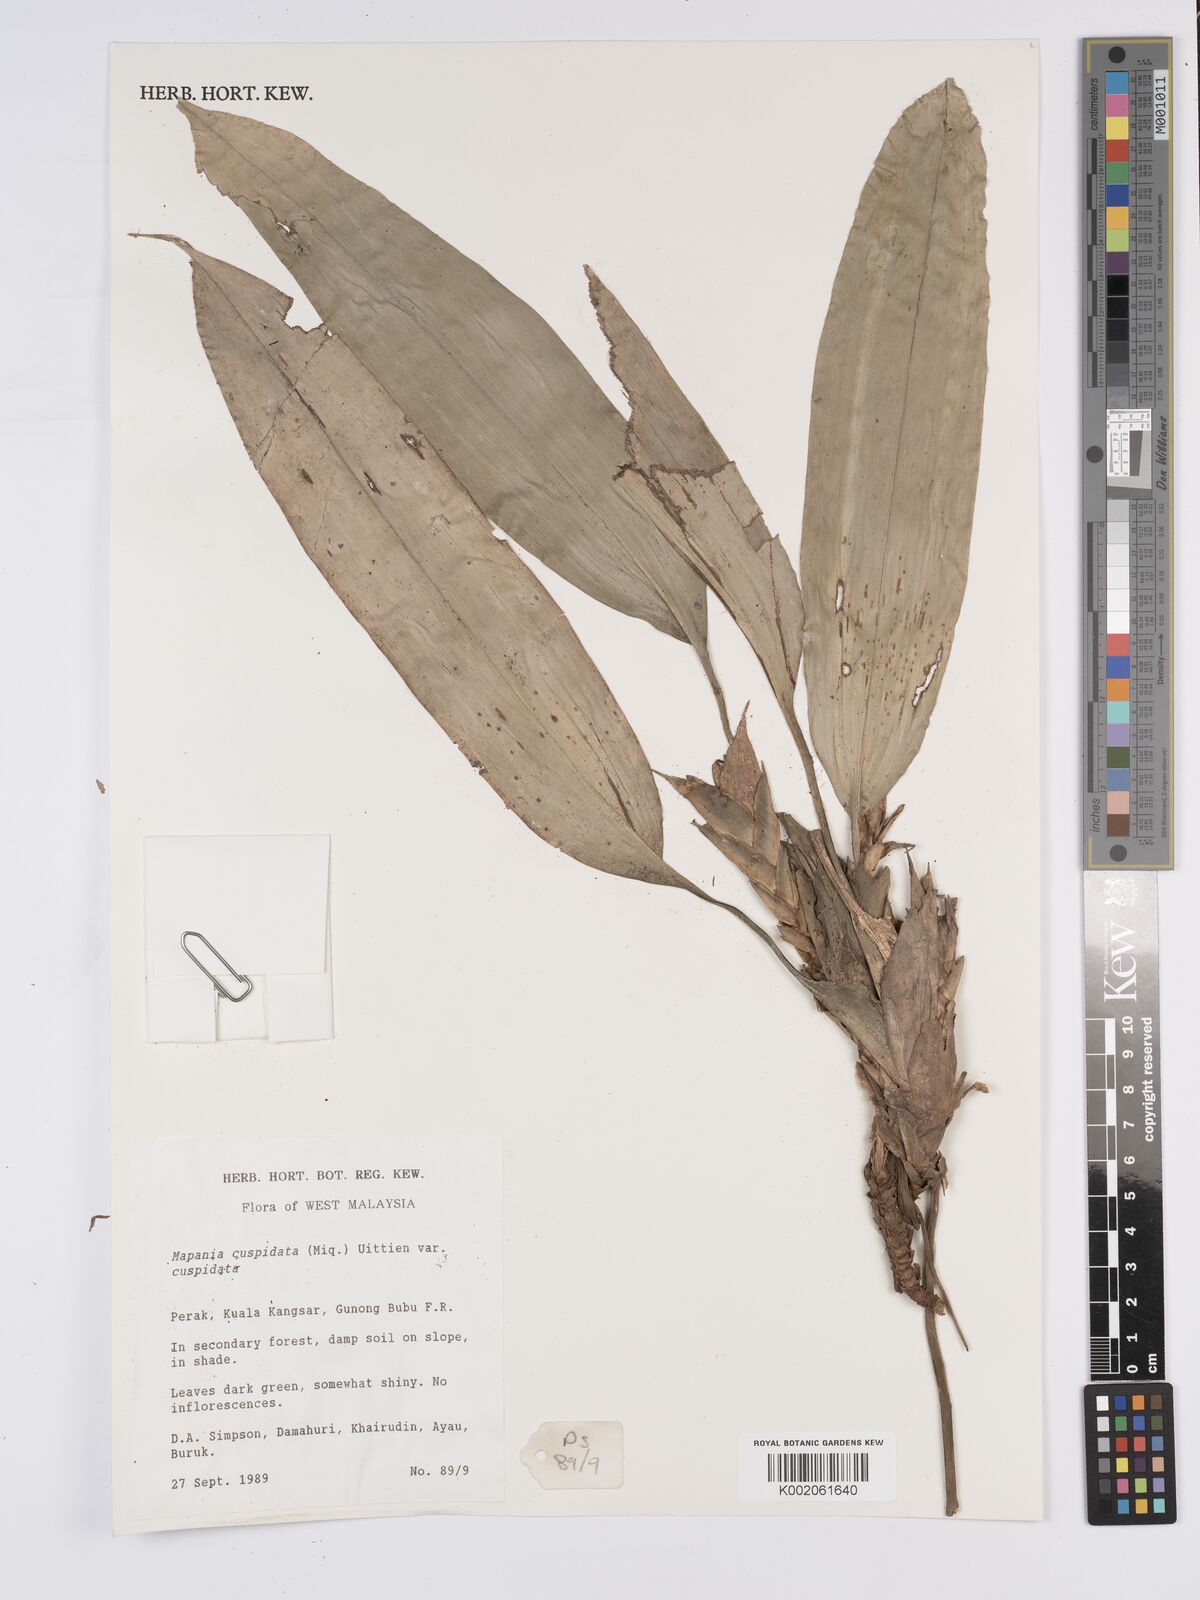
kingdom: Plantae
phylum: Tracheophyta
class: Liliopsida
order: Poales
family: Cyperaceae
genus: Mapania
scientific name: Mapania cuspidata
